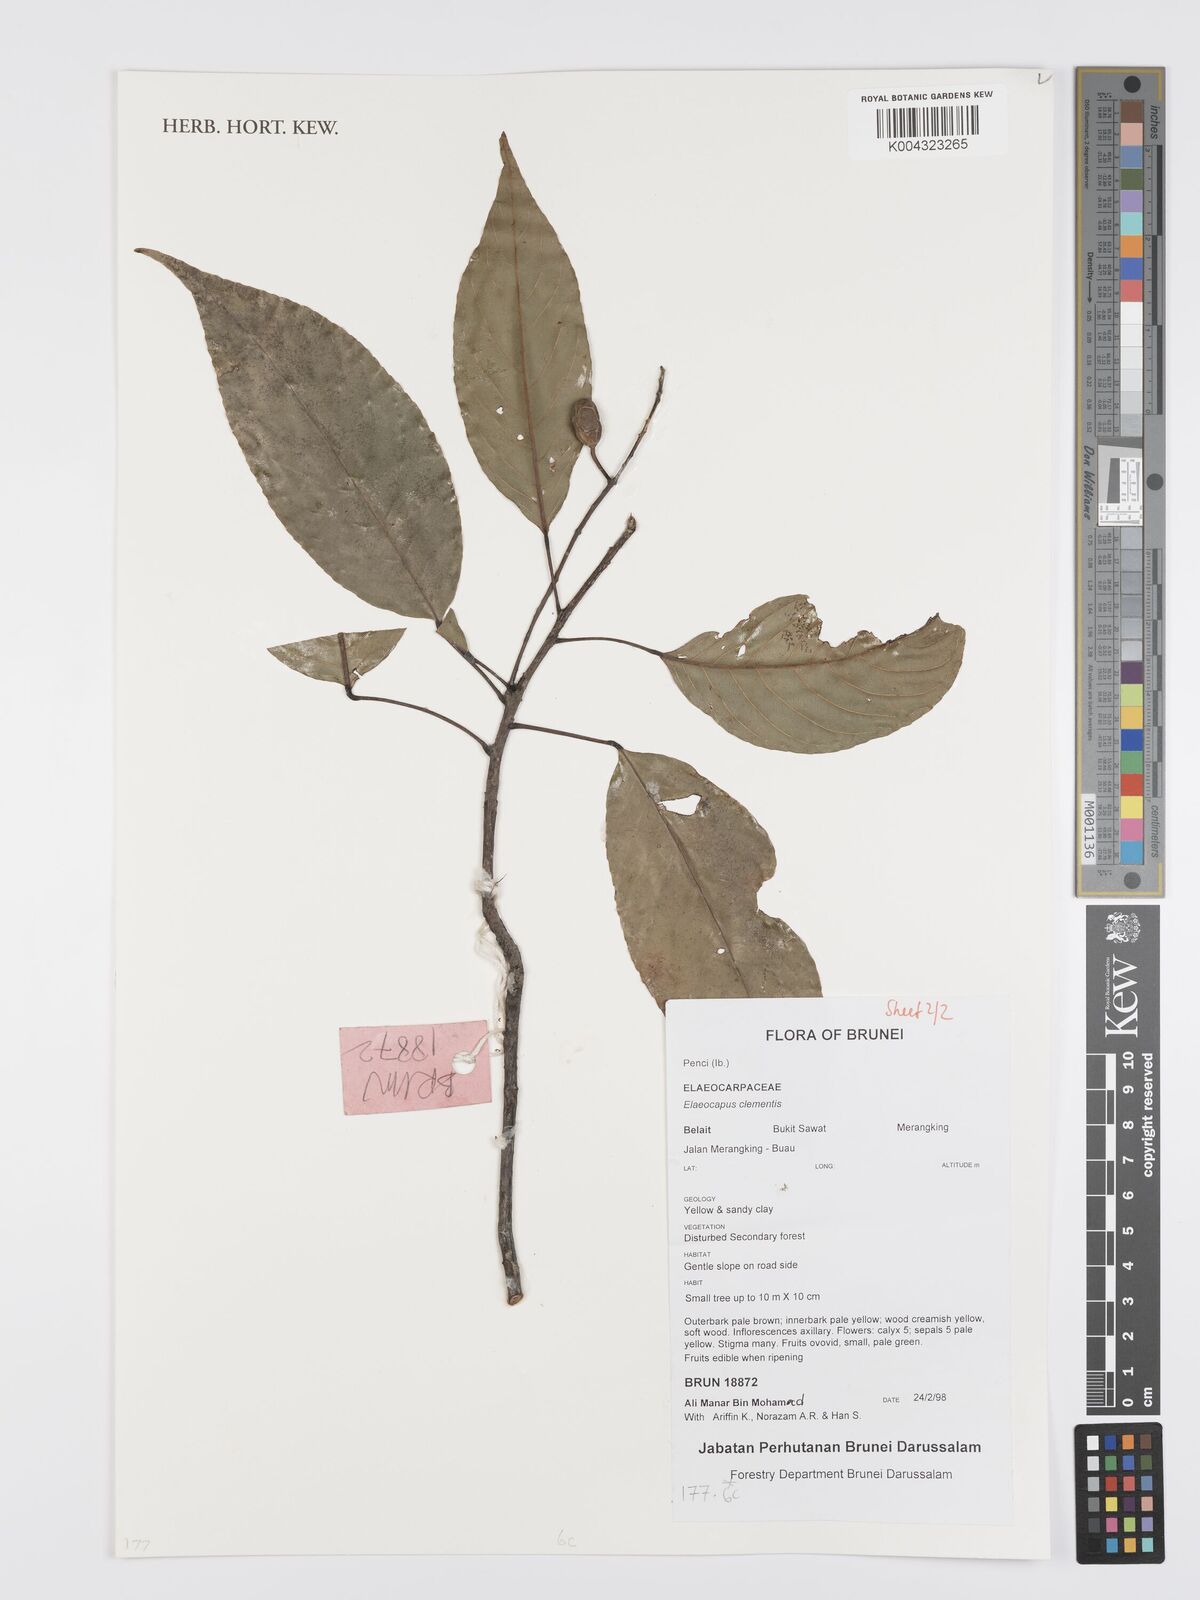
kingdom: Plantae
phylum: Tracheophyta
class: Magnoliopsida
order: Oxalidales
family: Elaeocarpaceae
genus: Elaeocarpus
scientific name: Elaeocarpus clementis
